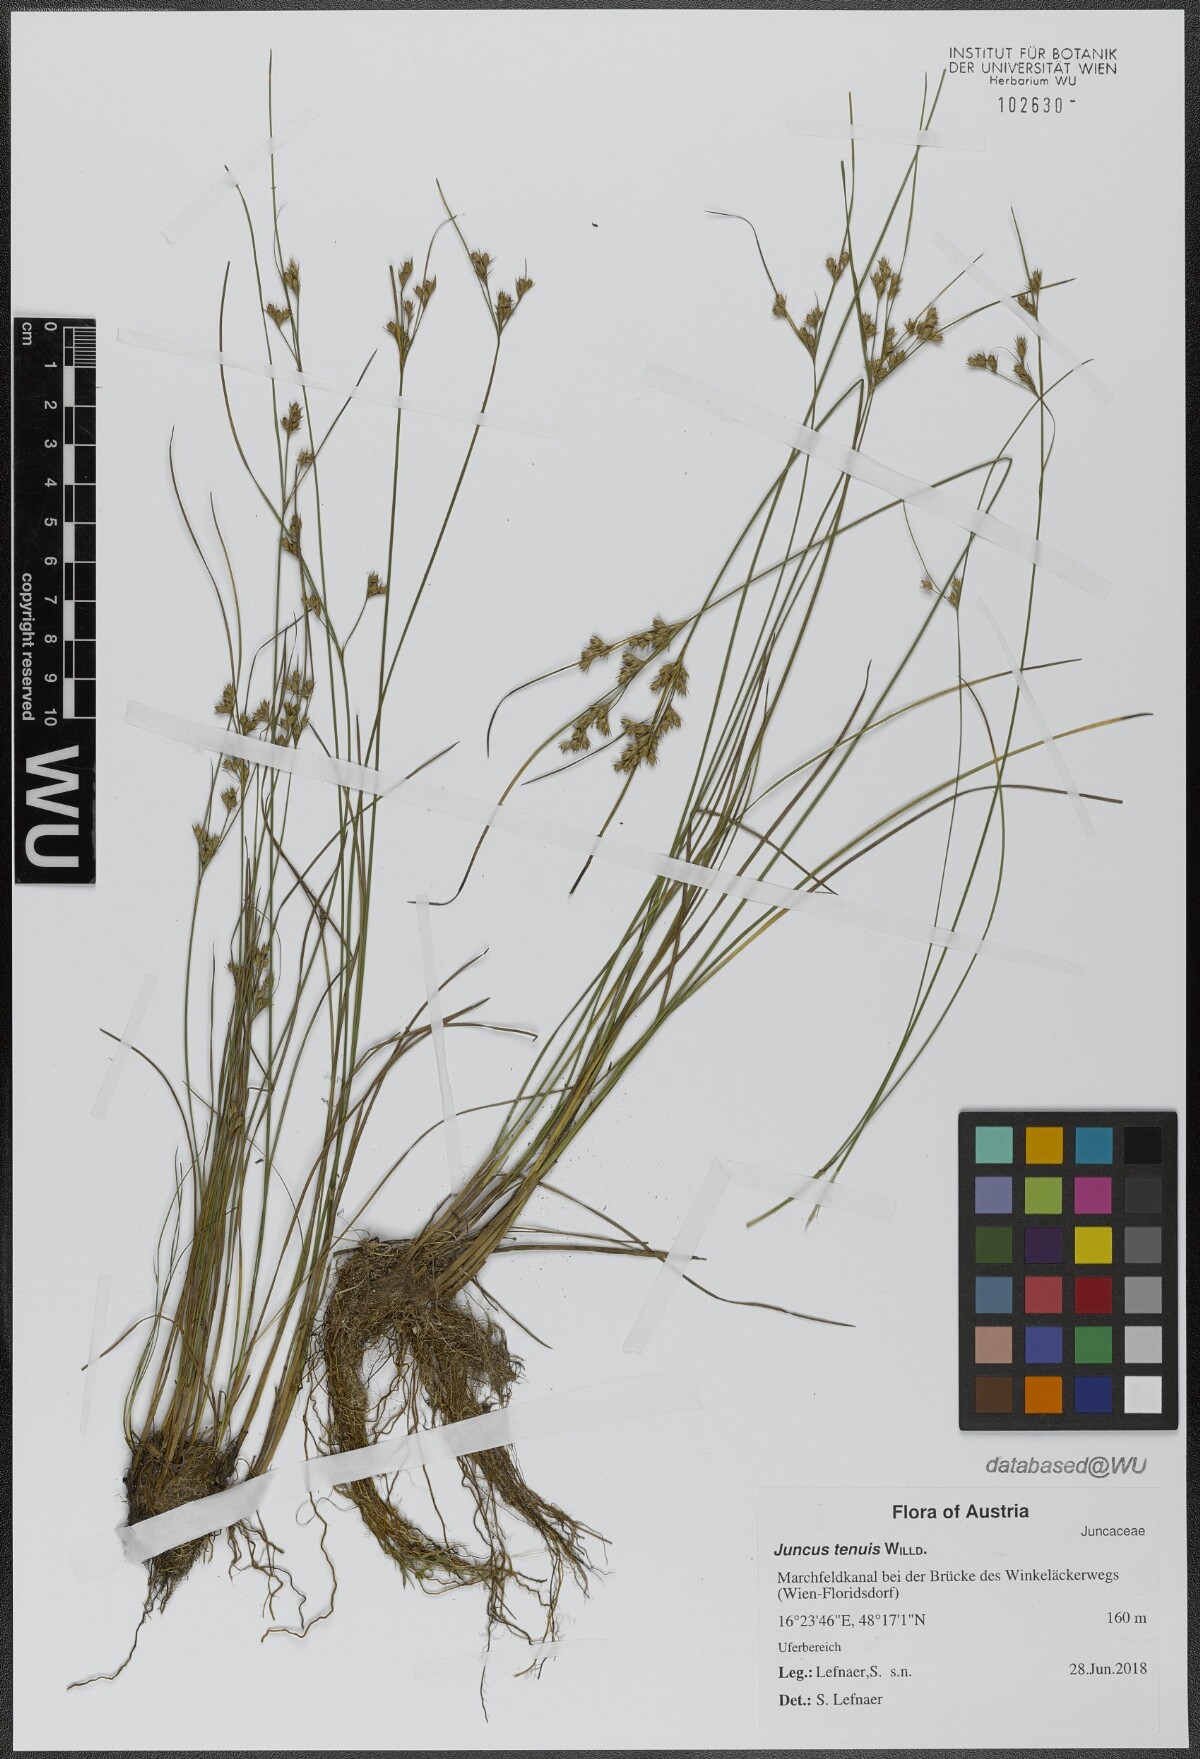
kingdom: Plantae
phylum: Tracheophyta
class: Liliopsida
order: Poales
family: Juncaceae
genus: Juncus
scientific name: Juncus tenuis
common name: Slender rush
